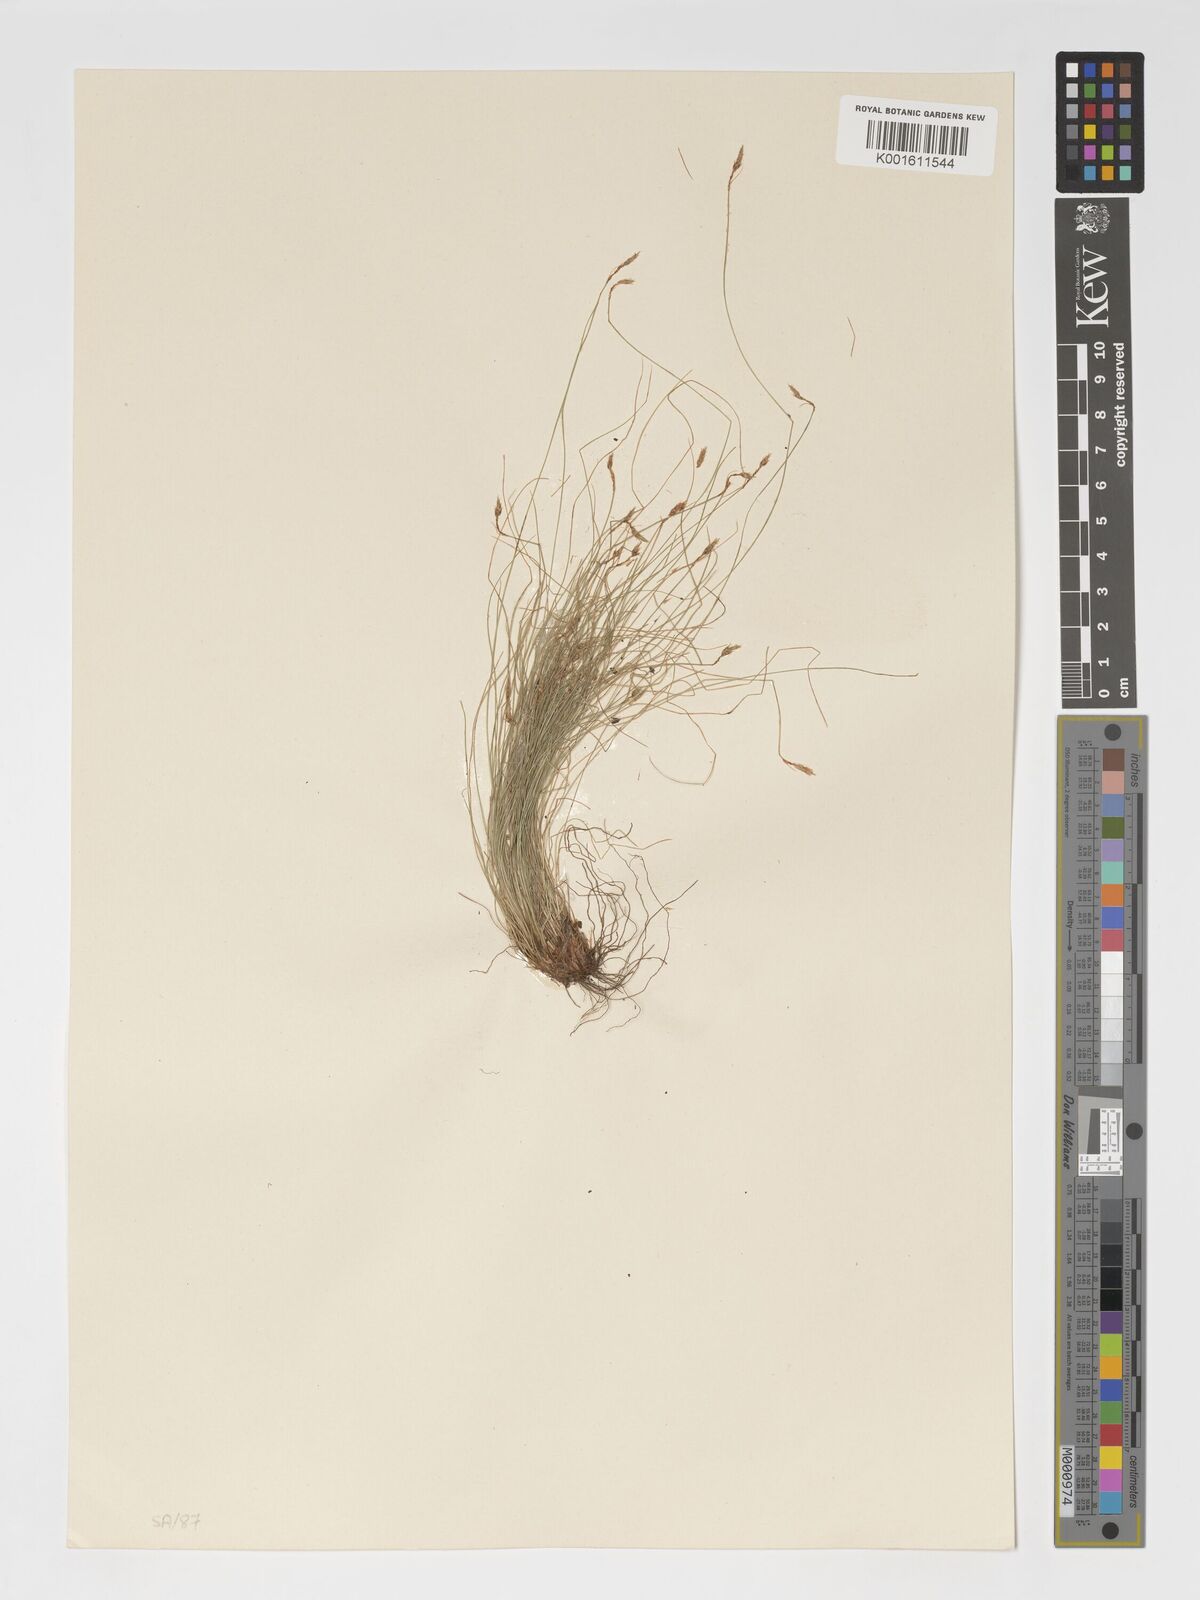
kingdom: Plantae
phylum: Tracheophyta
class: Liliopsida
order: Poales
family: Cyperaceae
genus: Bulbostylis
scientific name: Bulbostylis humilis
